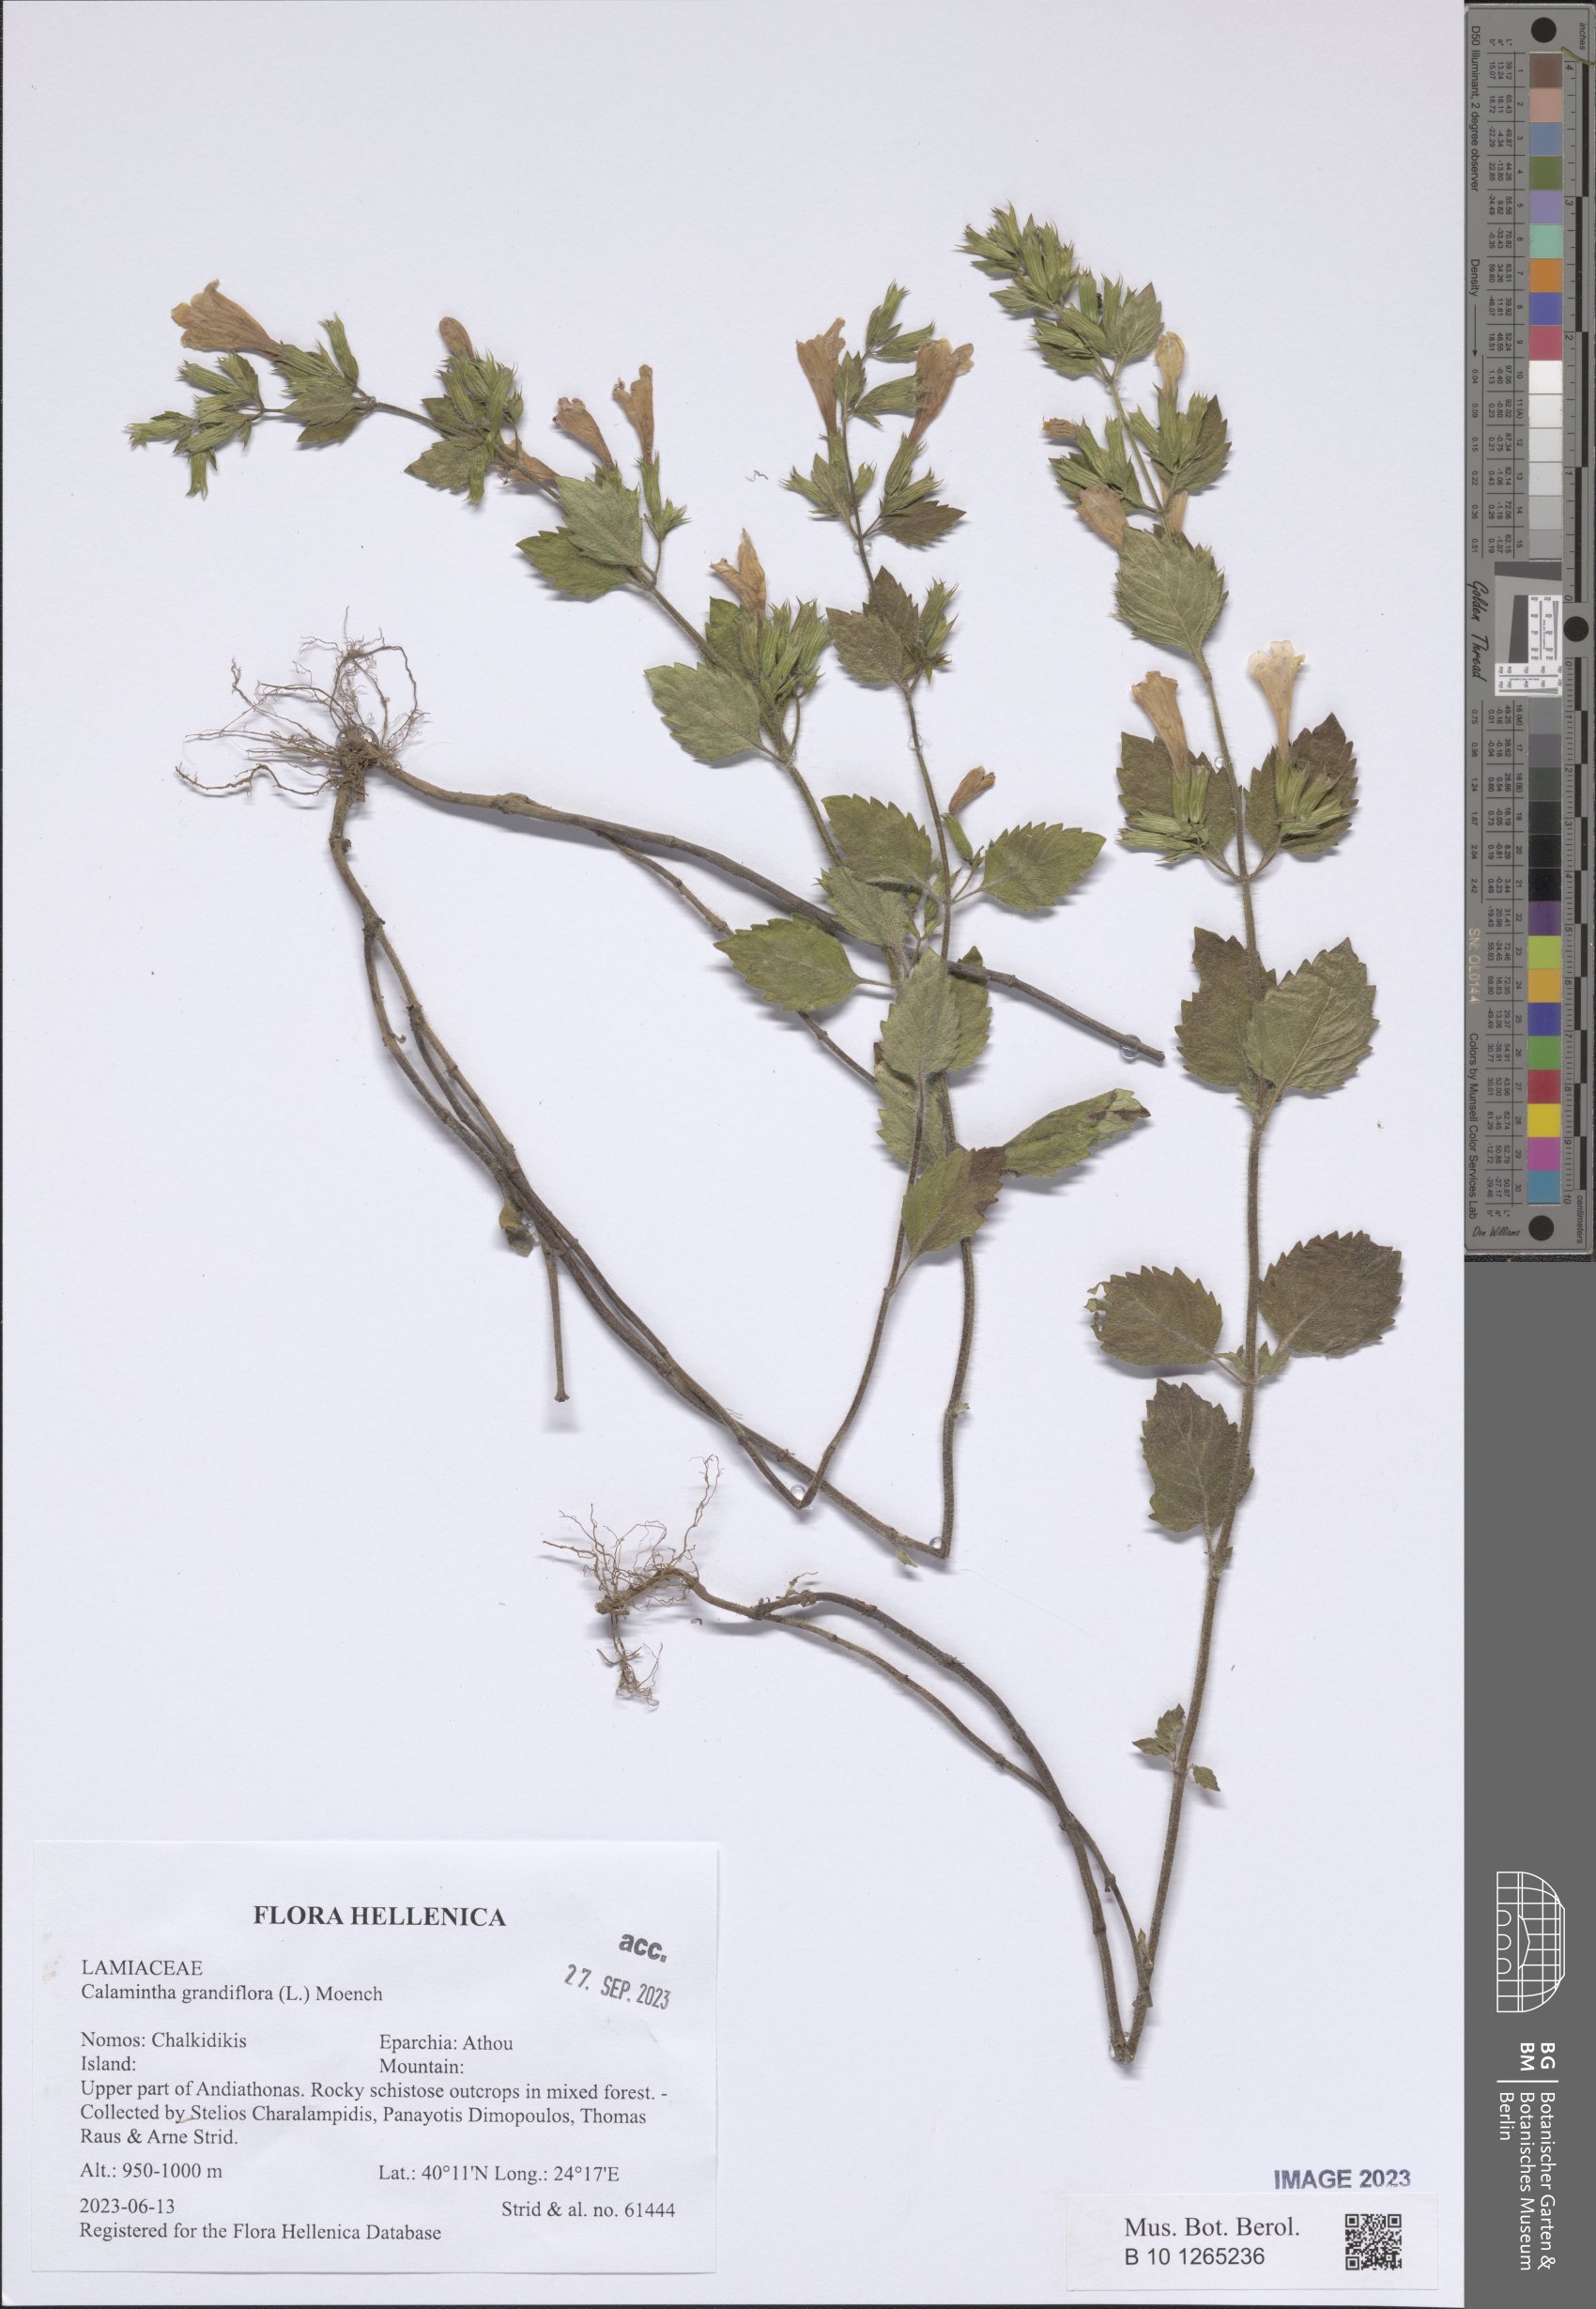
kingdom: Plantae
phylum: Tracheophyta
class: Magnoliopsida
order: Lamiales
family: Lamiaceae
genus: Clinopodium
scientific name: Clinopodium grandiflorum
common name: Greater calamint
